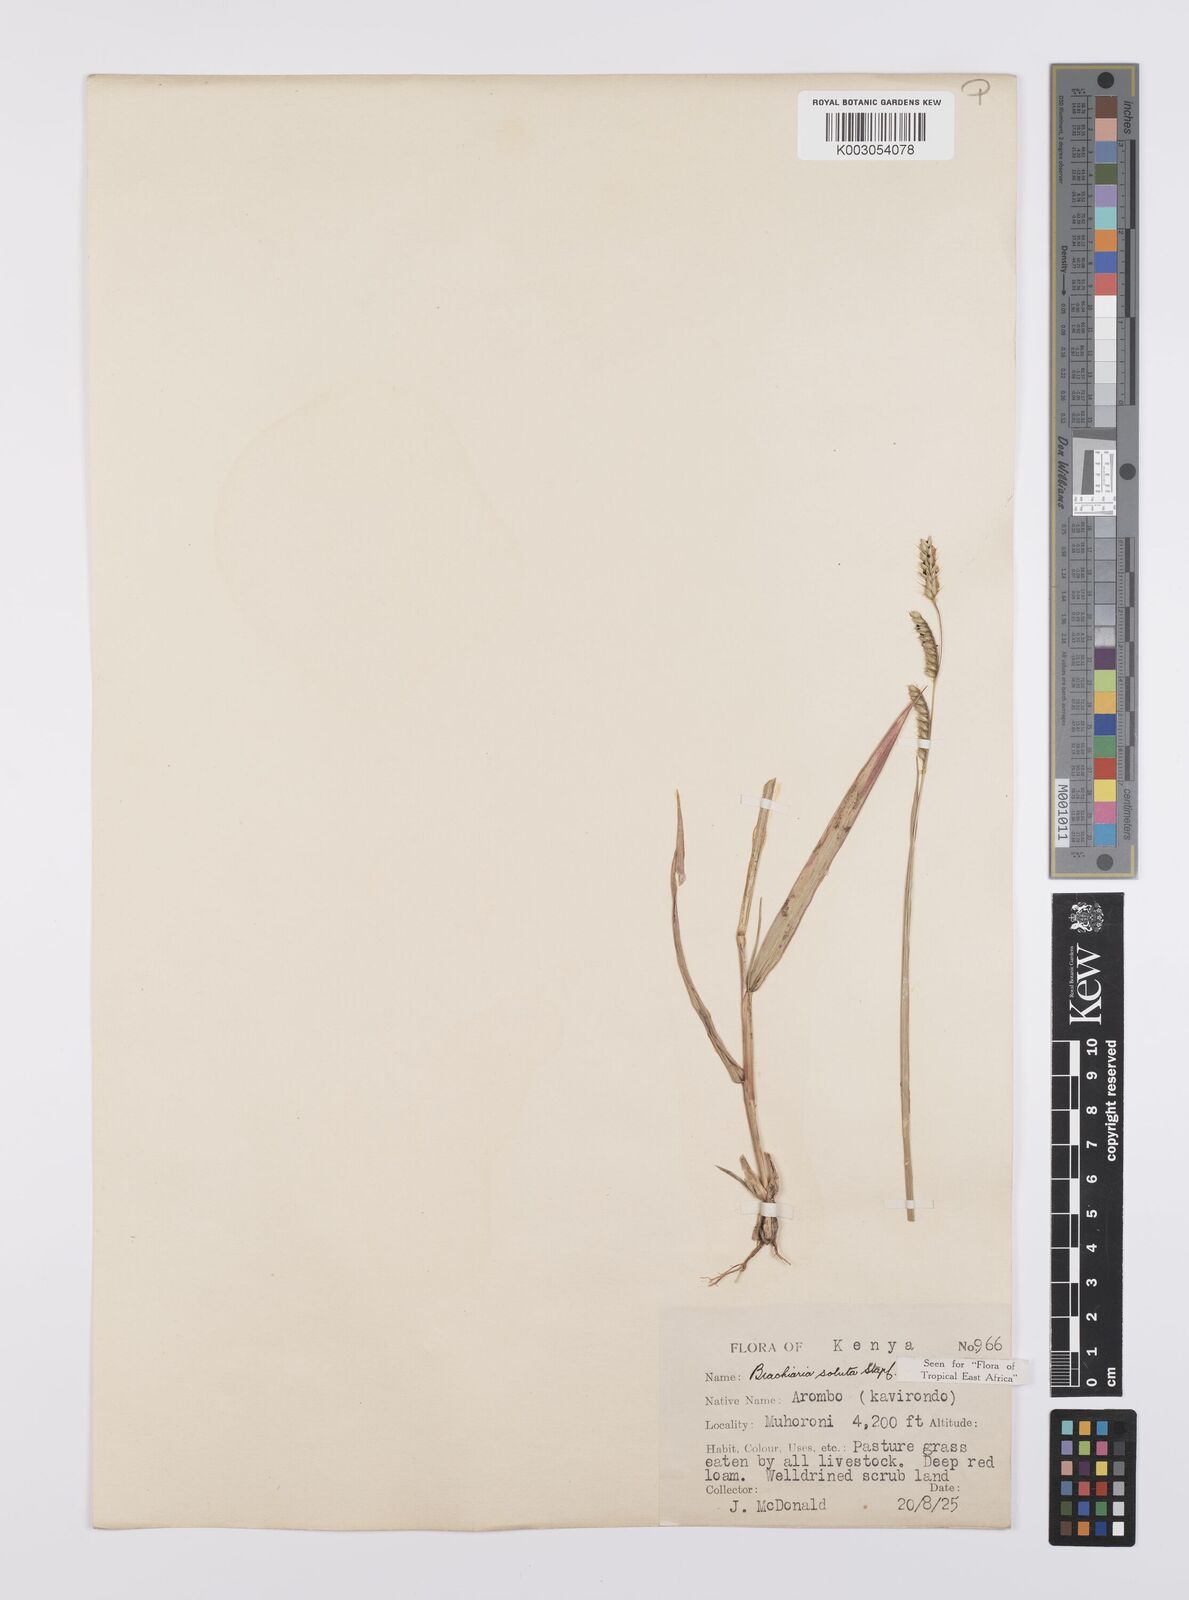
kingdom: Plantae
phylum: Tracheophyta
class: Liliopsida
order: Poales
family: Poaceae
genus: Urochloa
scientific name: Urochloa jubata
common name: Buffalograss
